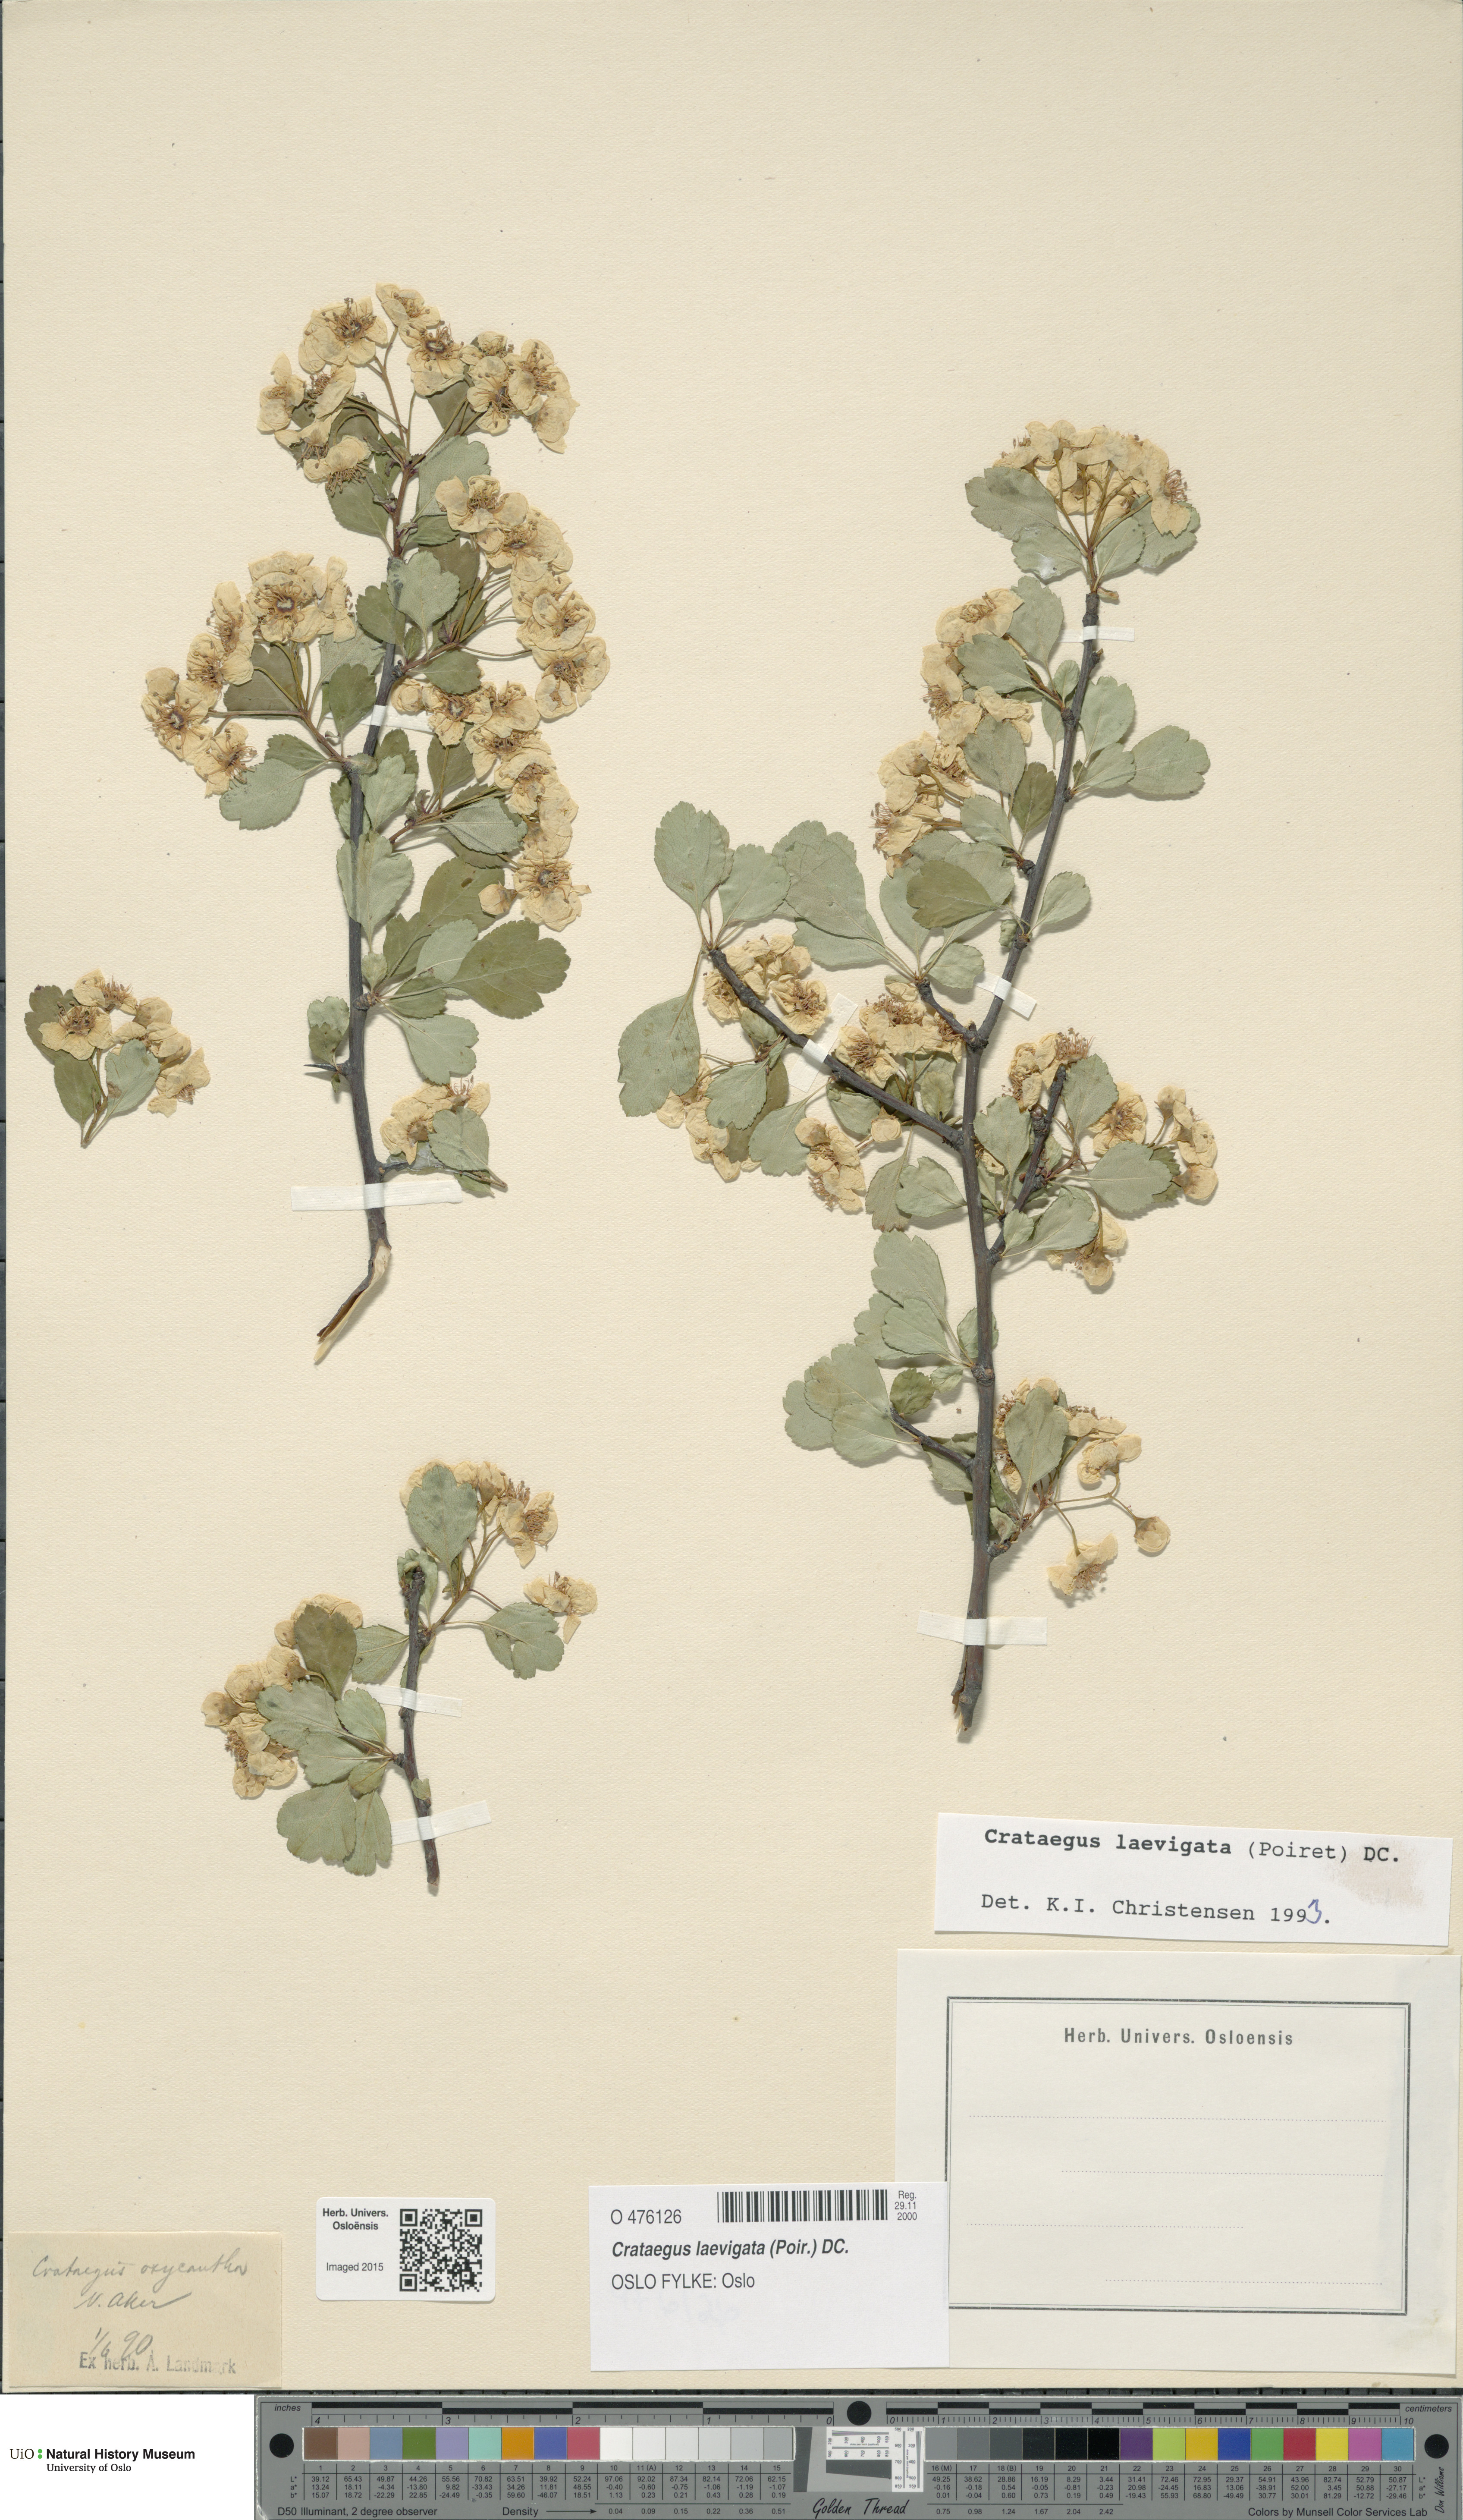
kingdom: Plantae
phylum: Tracheophyta
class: Magnoliopsida
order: Rosales
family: Rosaceae
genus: Crataegus
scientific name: Crataegus laevigata
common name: Midland hawthorn
